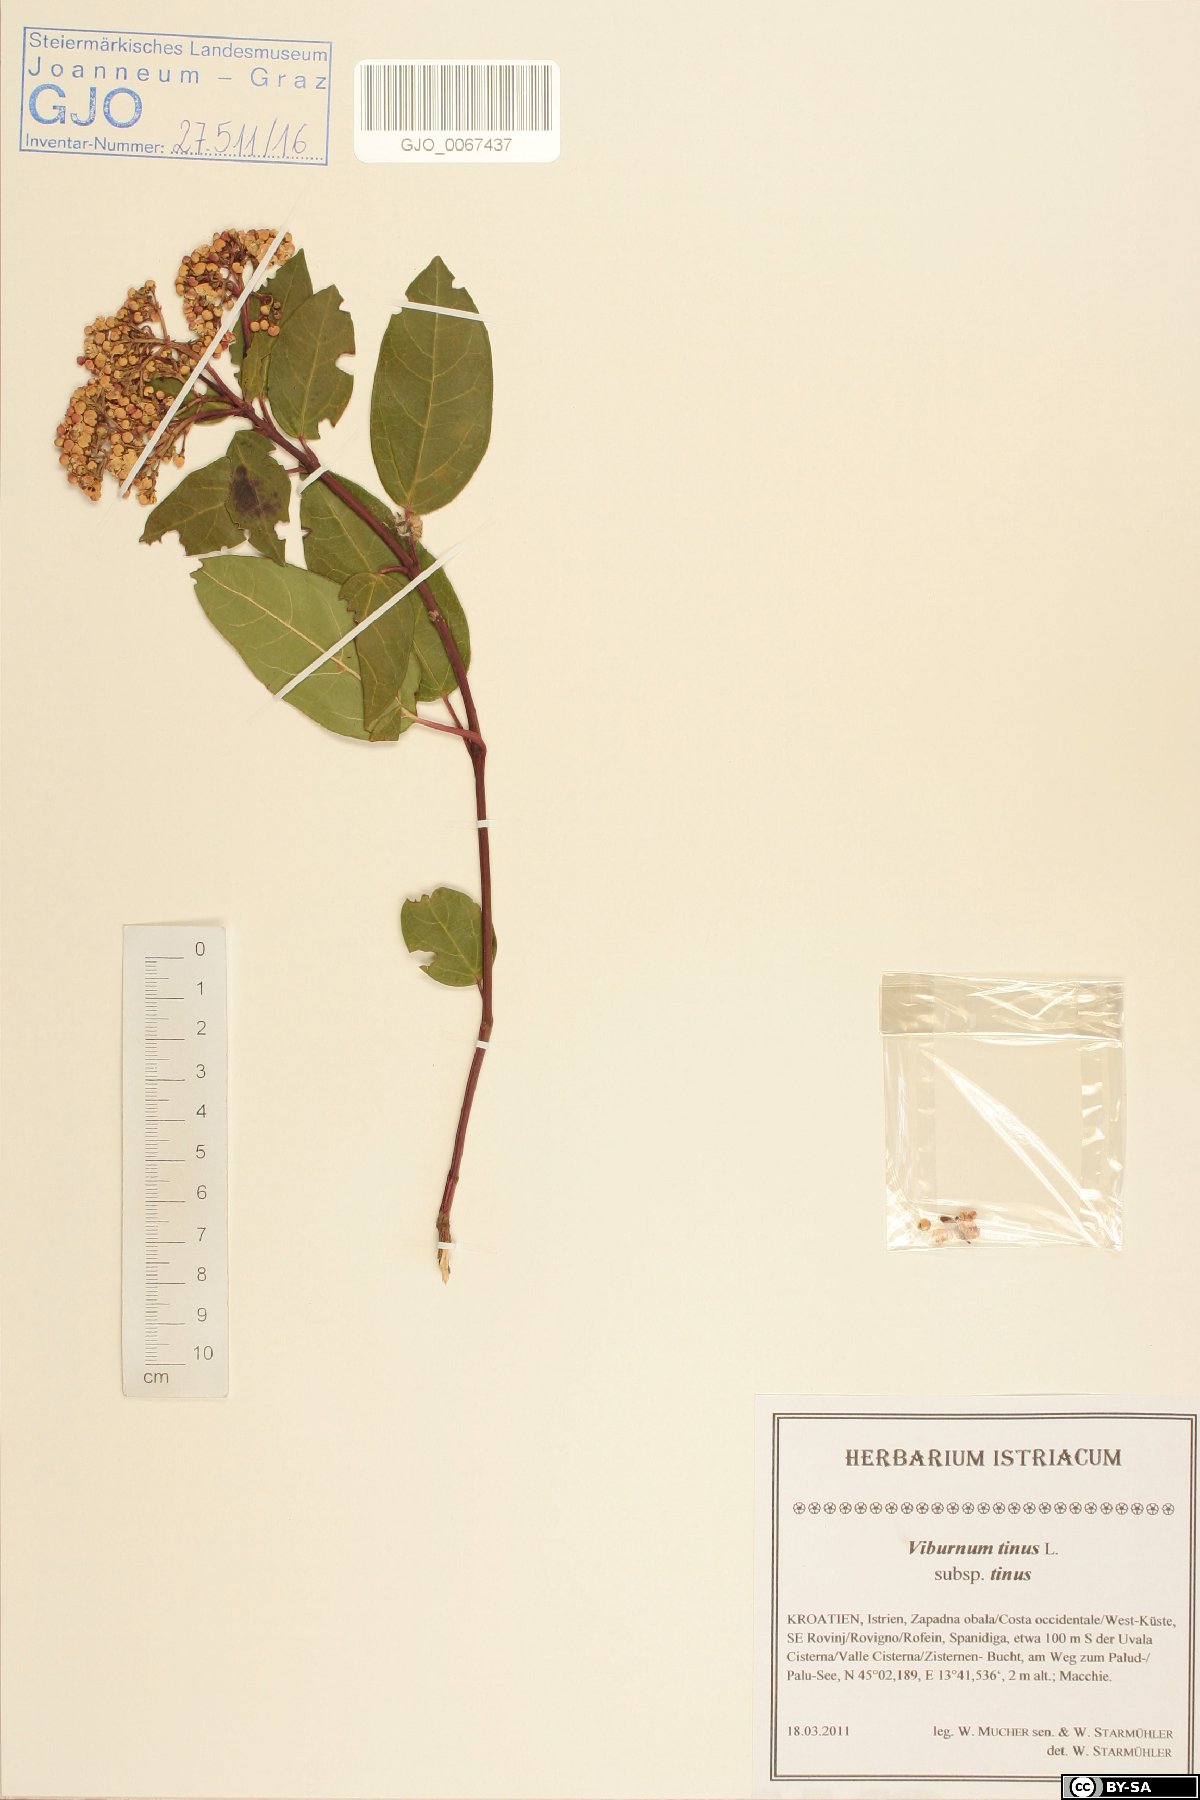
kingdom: Plantae
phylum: Tracheophyta
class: Magnoliopsida
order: Dipsacales
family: Viburnaceae
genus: Viburnum
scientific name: Viburnum tinus
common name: Laurustinus
